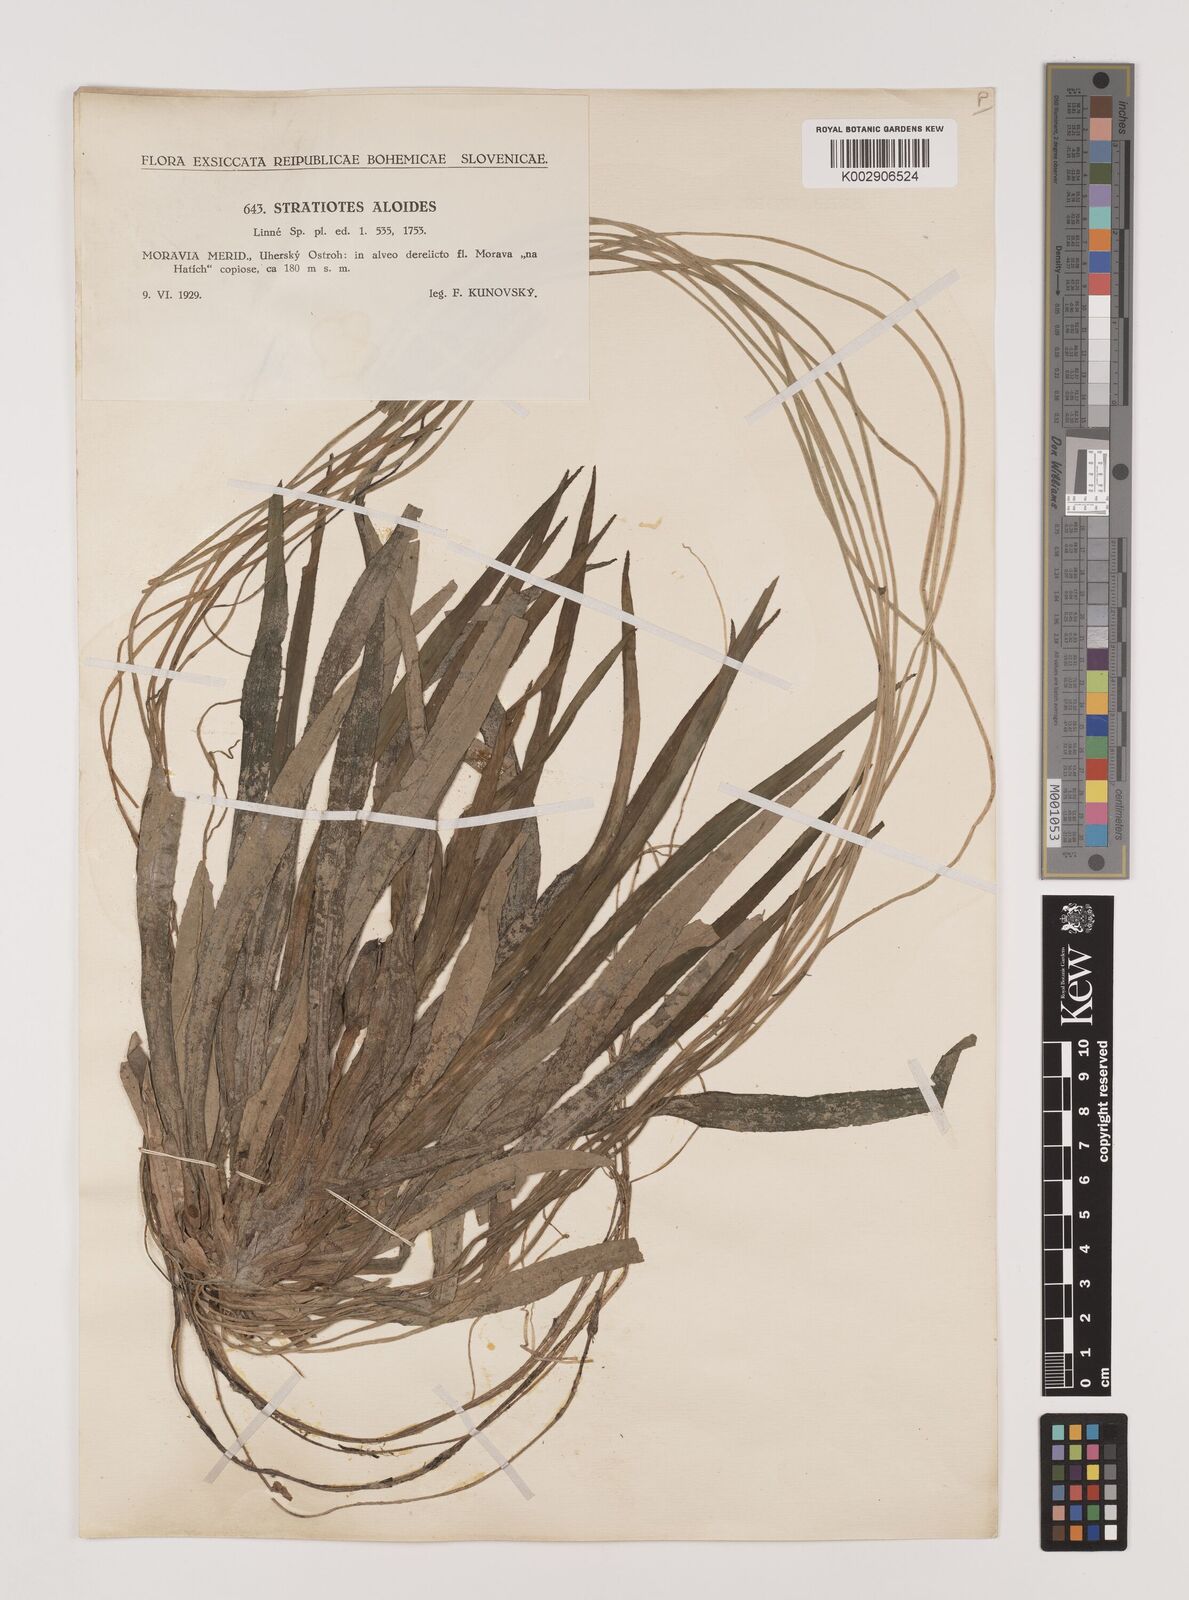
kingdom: Plantae
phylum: Tracheophyta
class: Liliopsida
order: Alismatales
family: Hydrocharitaceae
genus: Stratiotes
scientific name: Stratiotes aloides
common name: Water-soldier
